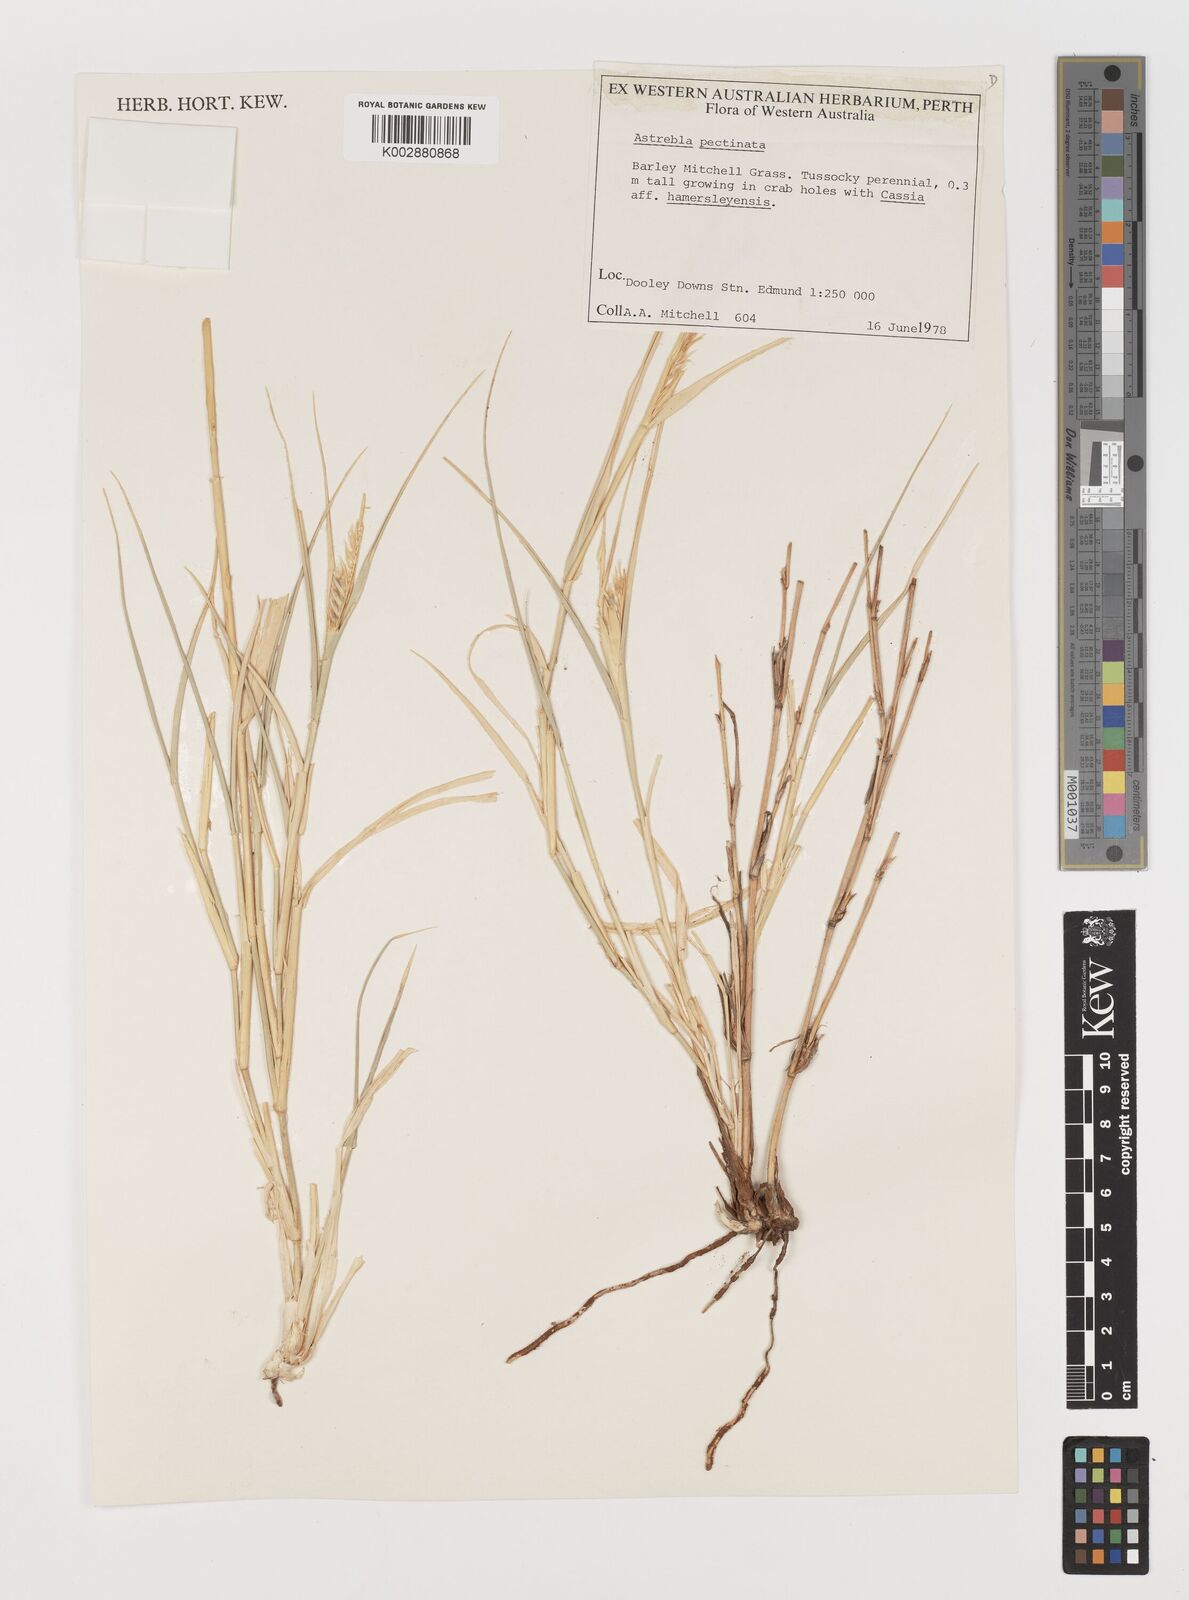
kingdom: Plantae
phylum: Tracheophyta
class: Liliopsida
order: Poales
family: Poaceae
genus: Astrebla
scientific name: Astrebla pectinata
